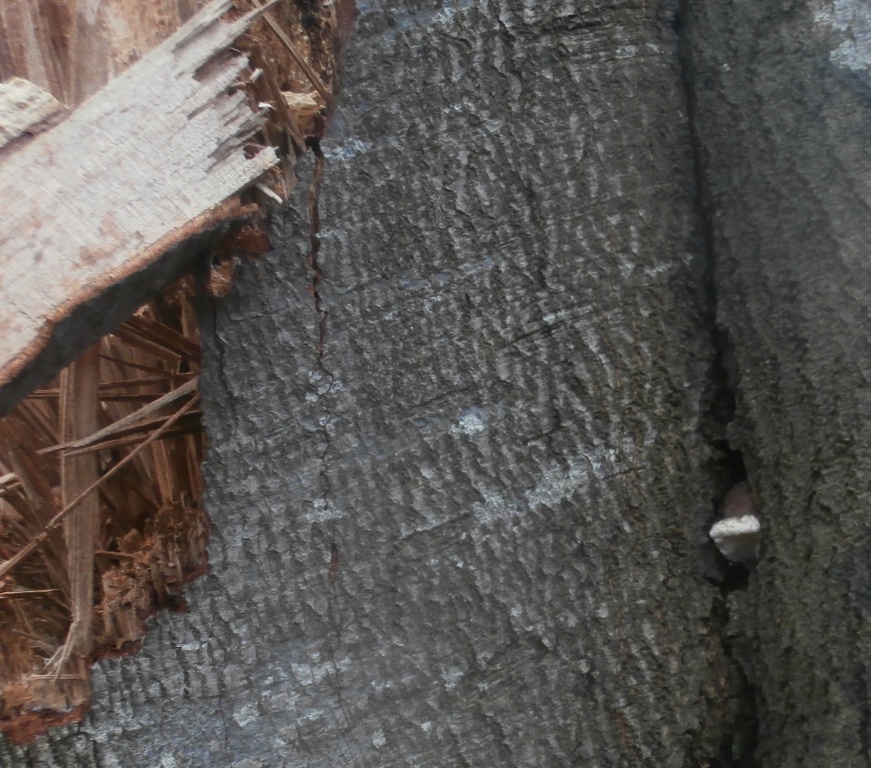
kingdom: Fungi
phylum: Basidiomycota
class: Agaricomycetes
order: Polyporales
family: Polyporaceae
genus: Ganoderma
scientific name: Ganoderma adspersum
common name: grov lakporesvamp
